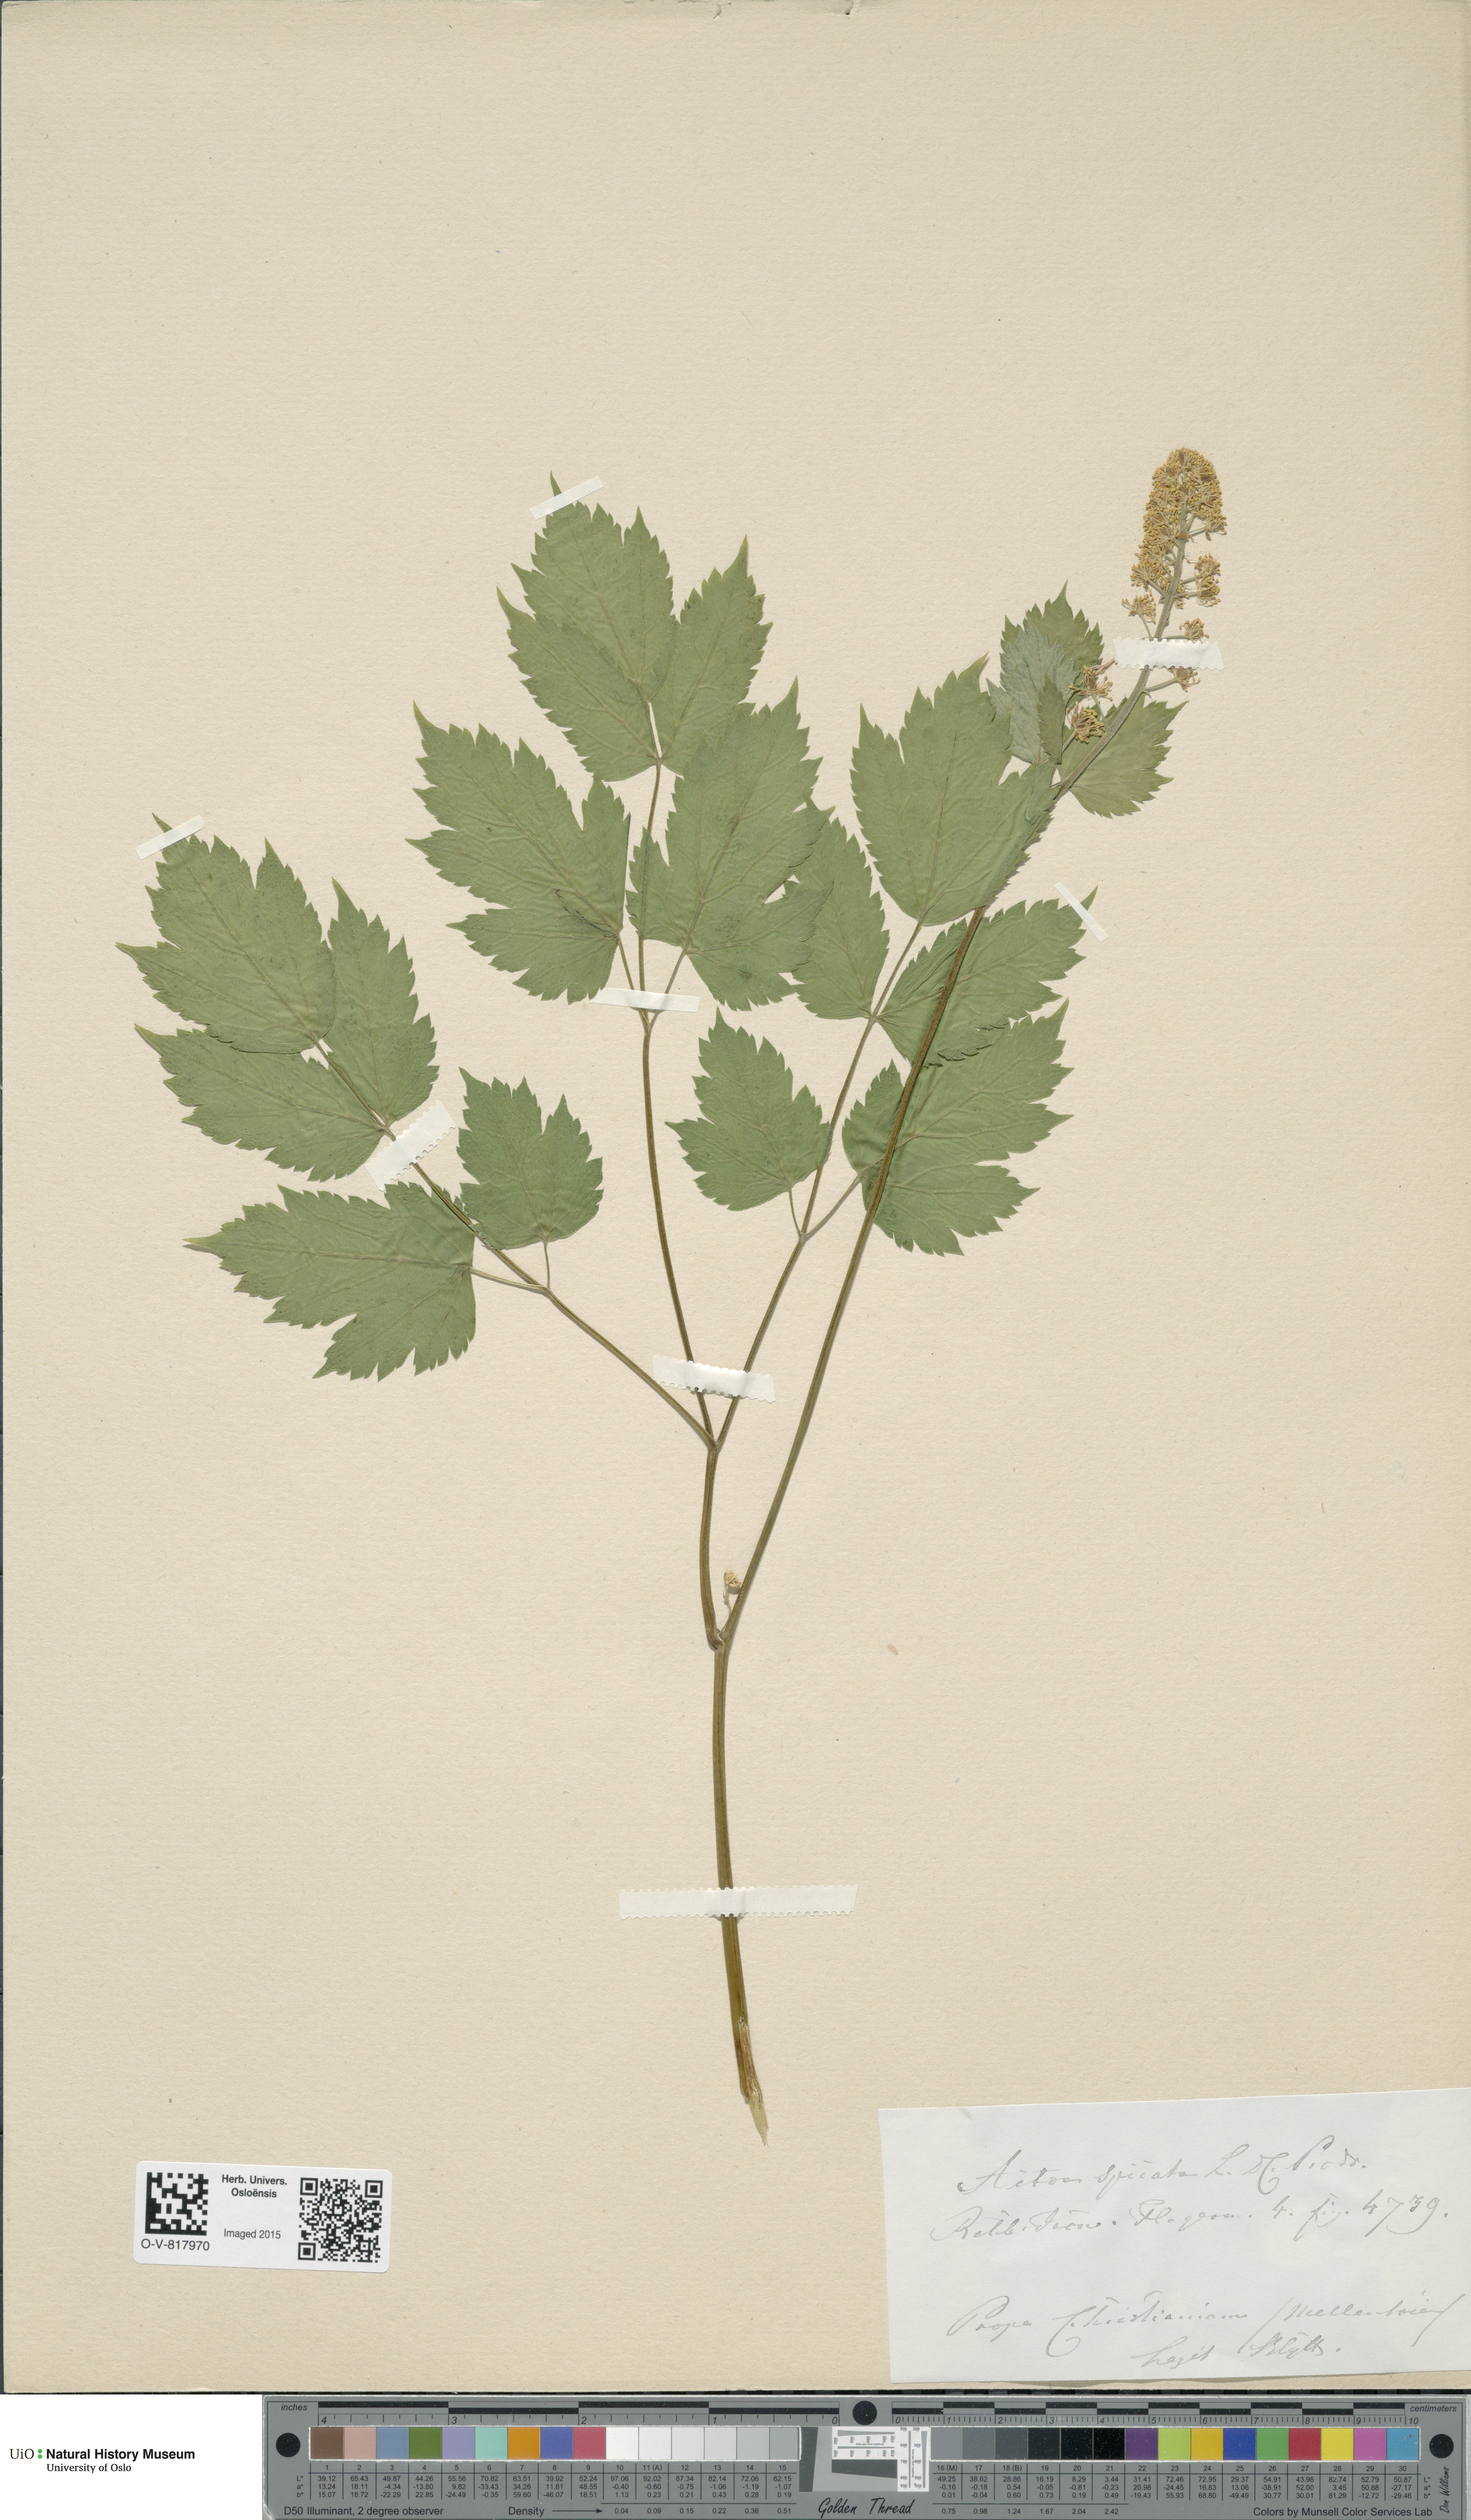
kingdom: Plantae
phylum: Tracheophyta
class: Magnoliopsida
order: Ranunculales
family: Ranunculaceae
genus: Actaea
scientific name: Actaea spicata
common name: Baneberry
